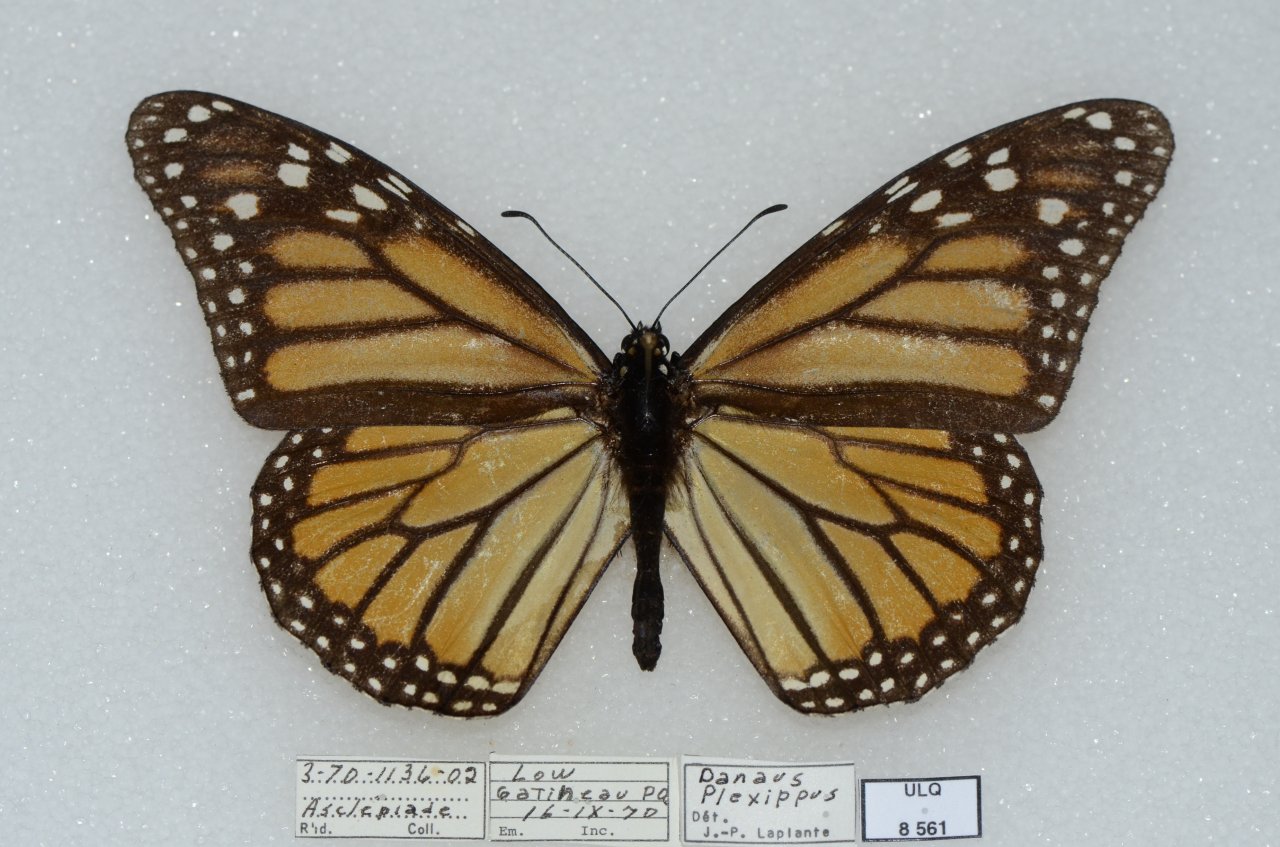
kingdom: Animalia
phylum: Arthropoda
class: Insecta
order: Lepidoptera
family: Nymphalidae
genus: Danaus
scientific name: Danaus plexippus
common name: Monarch
